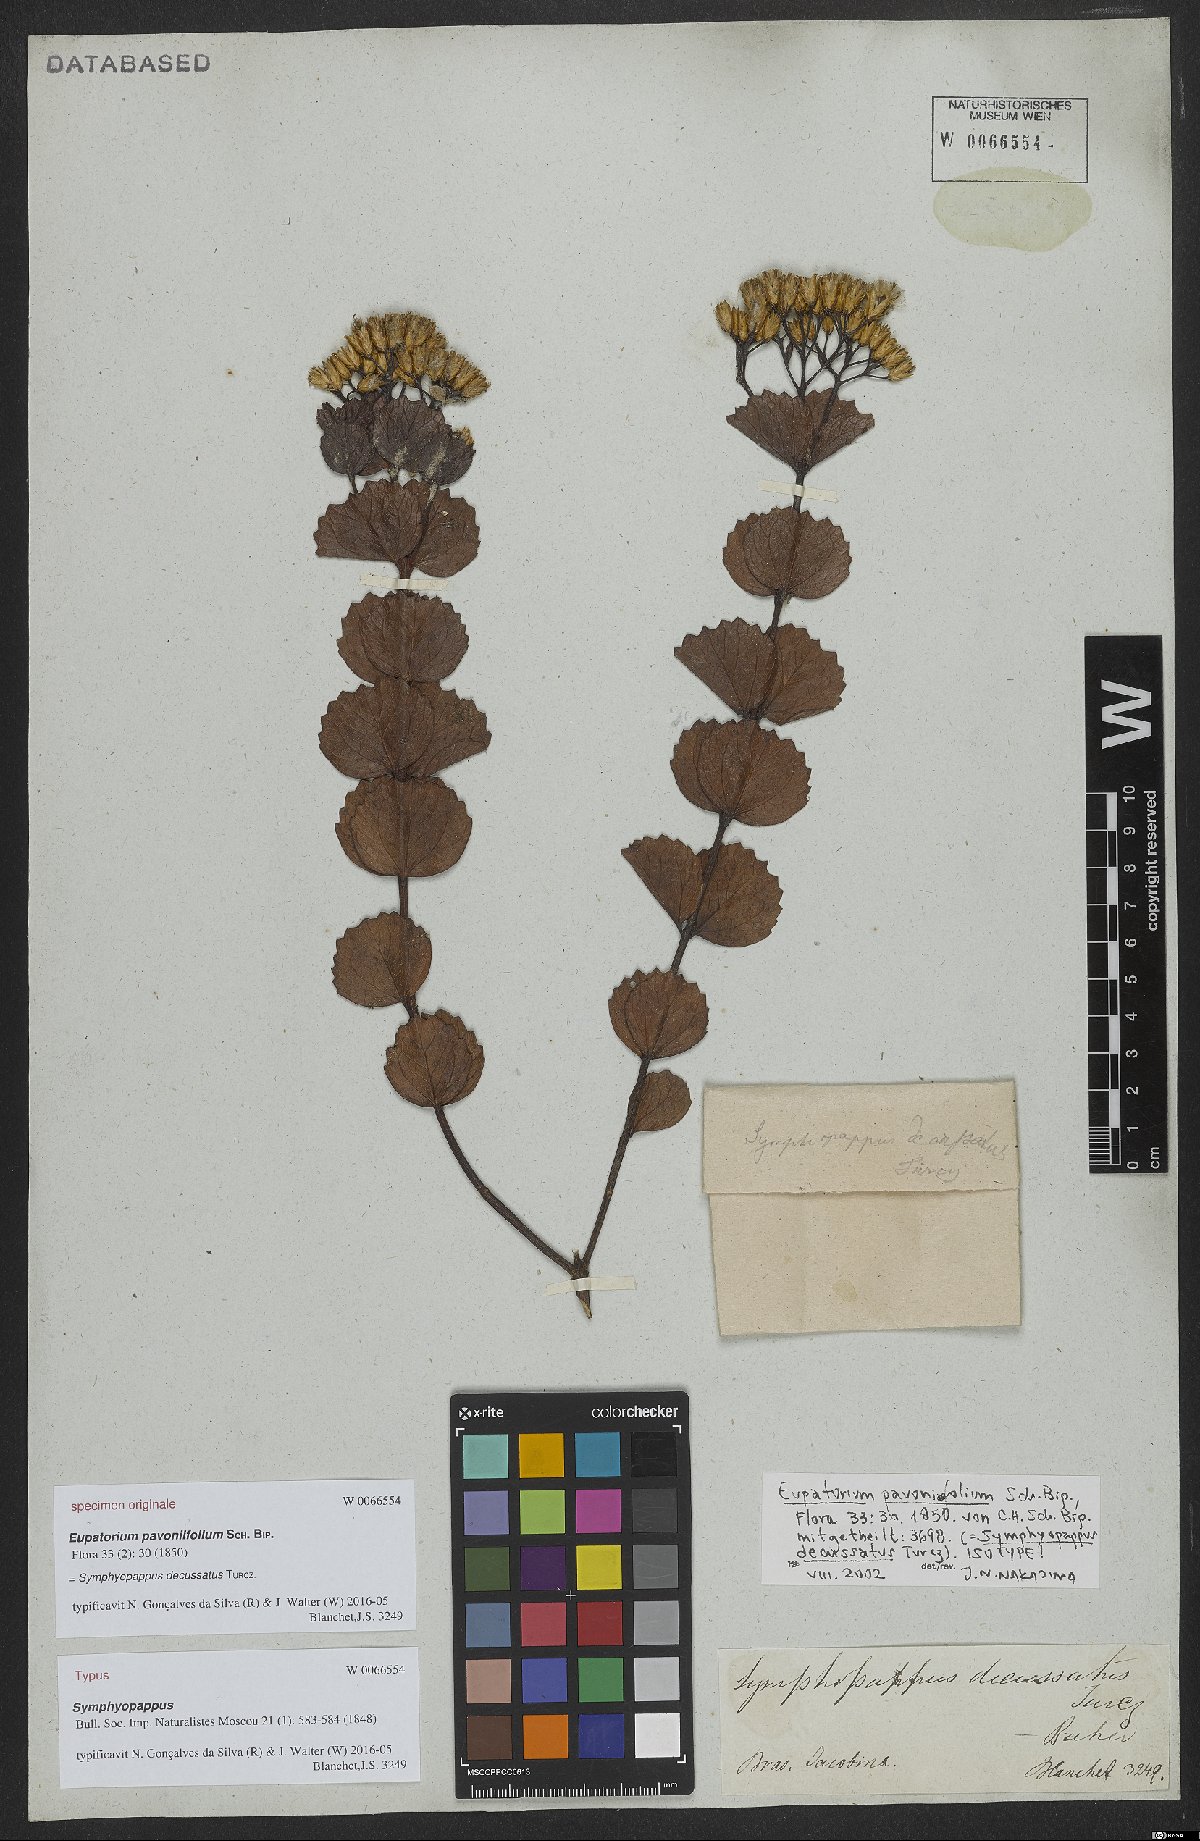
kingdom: Plantae
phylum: Tracheophyta
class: Magnoliopsida
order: Asterales
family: Asteraceae
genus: Symphyopappus
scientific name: Symphyopappus decussatus
